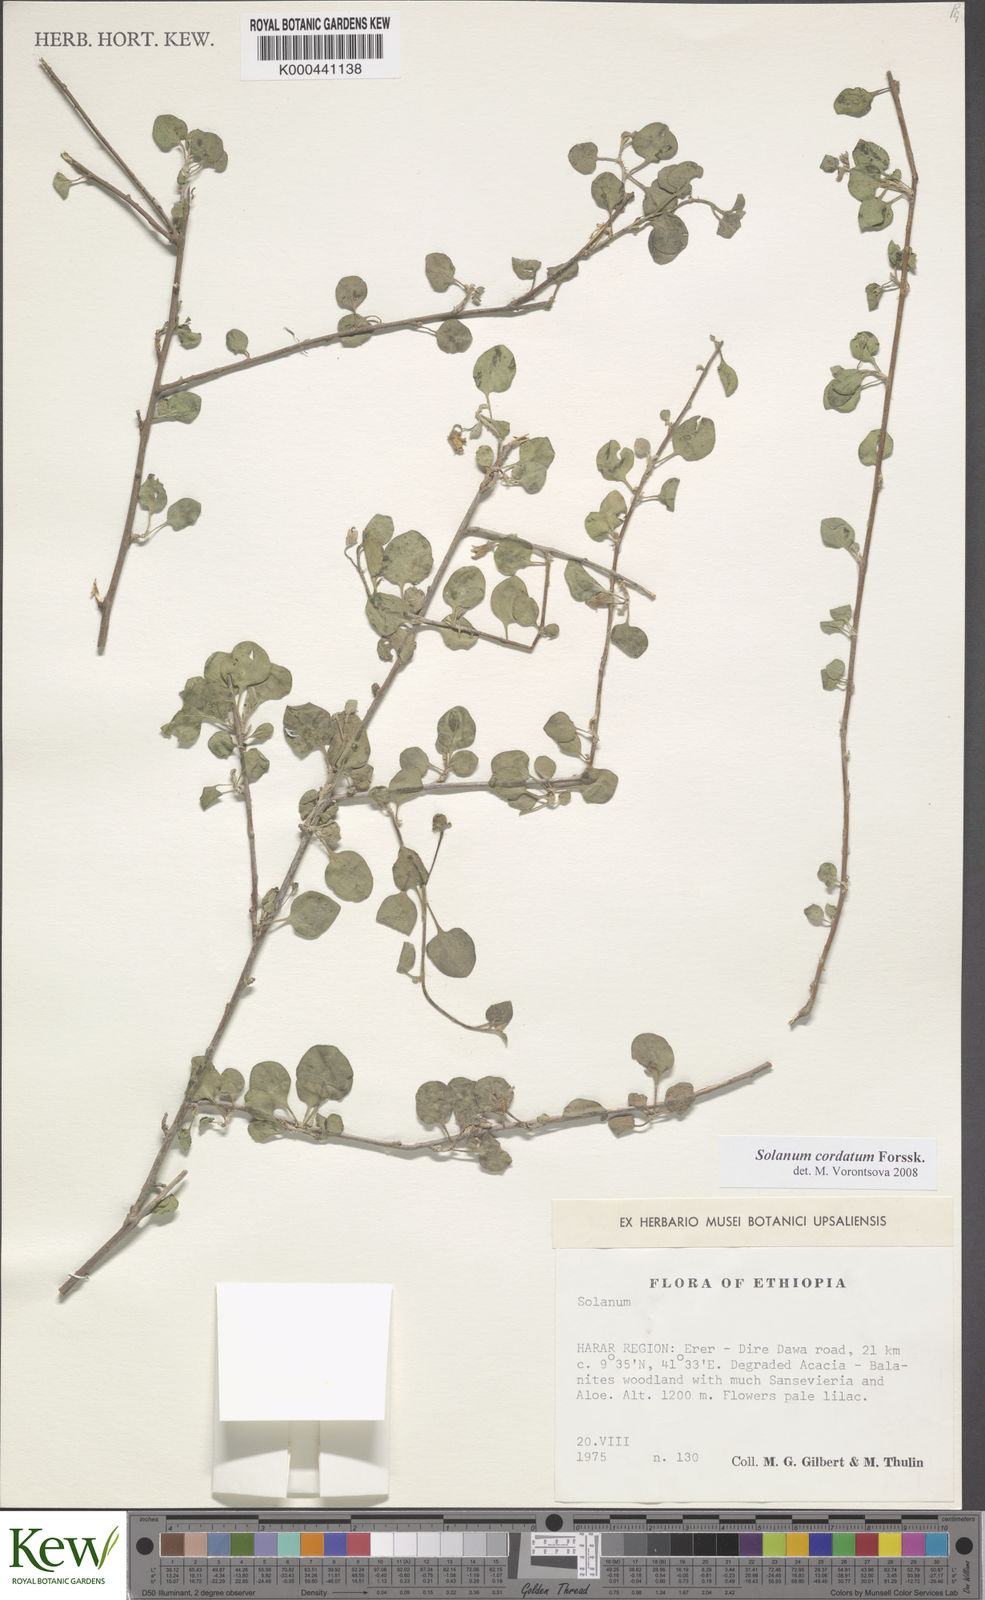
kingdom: Plantae
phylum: Tracheophyta
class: Magnoliopsida
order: Solanales
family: Solanaceae
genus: Solanum
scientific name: Solanum cordatum
